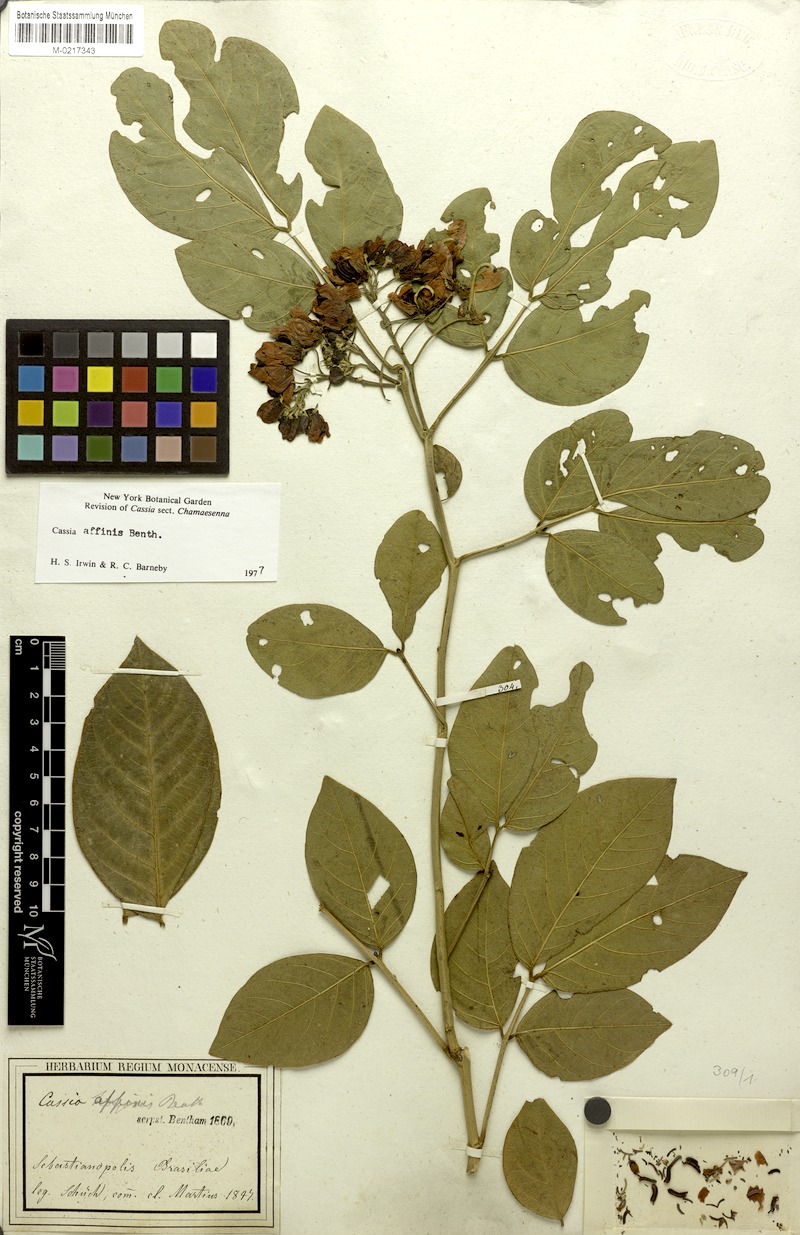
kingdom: Plantae
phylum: Tracheophyta
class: Magnoliopsida
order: Fabales
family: Fabaceae
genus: Senna
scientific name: Senna affinis
